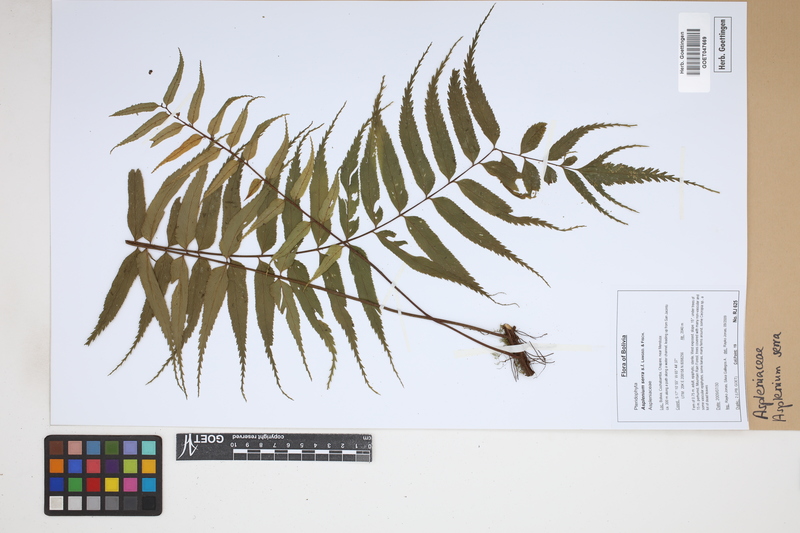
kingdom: Plantae
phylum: Tracheophyta
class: Polypodiopsida
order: Polypodiales
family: Aspleniaceae
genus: Asplenium
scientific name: Asplenium serra
